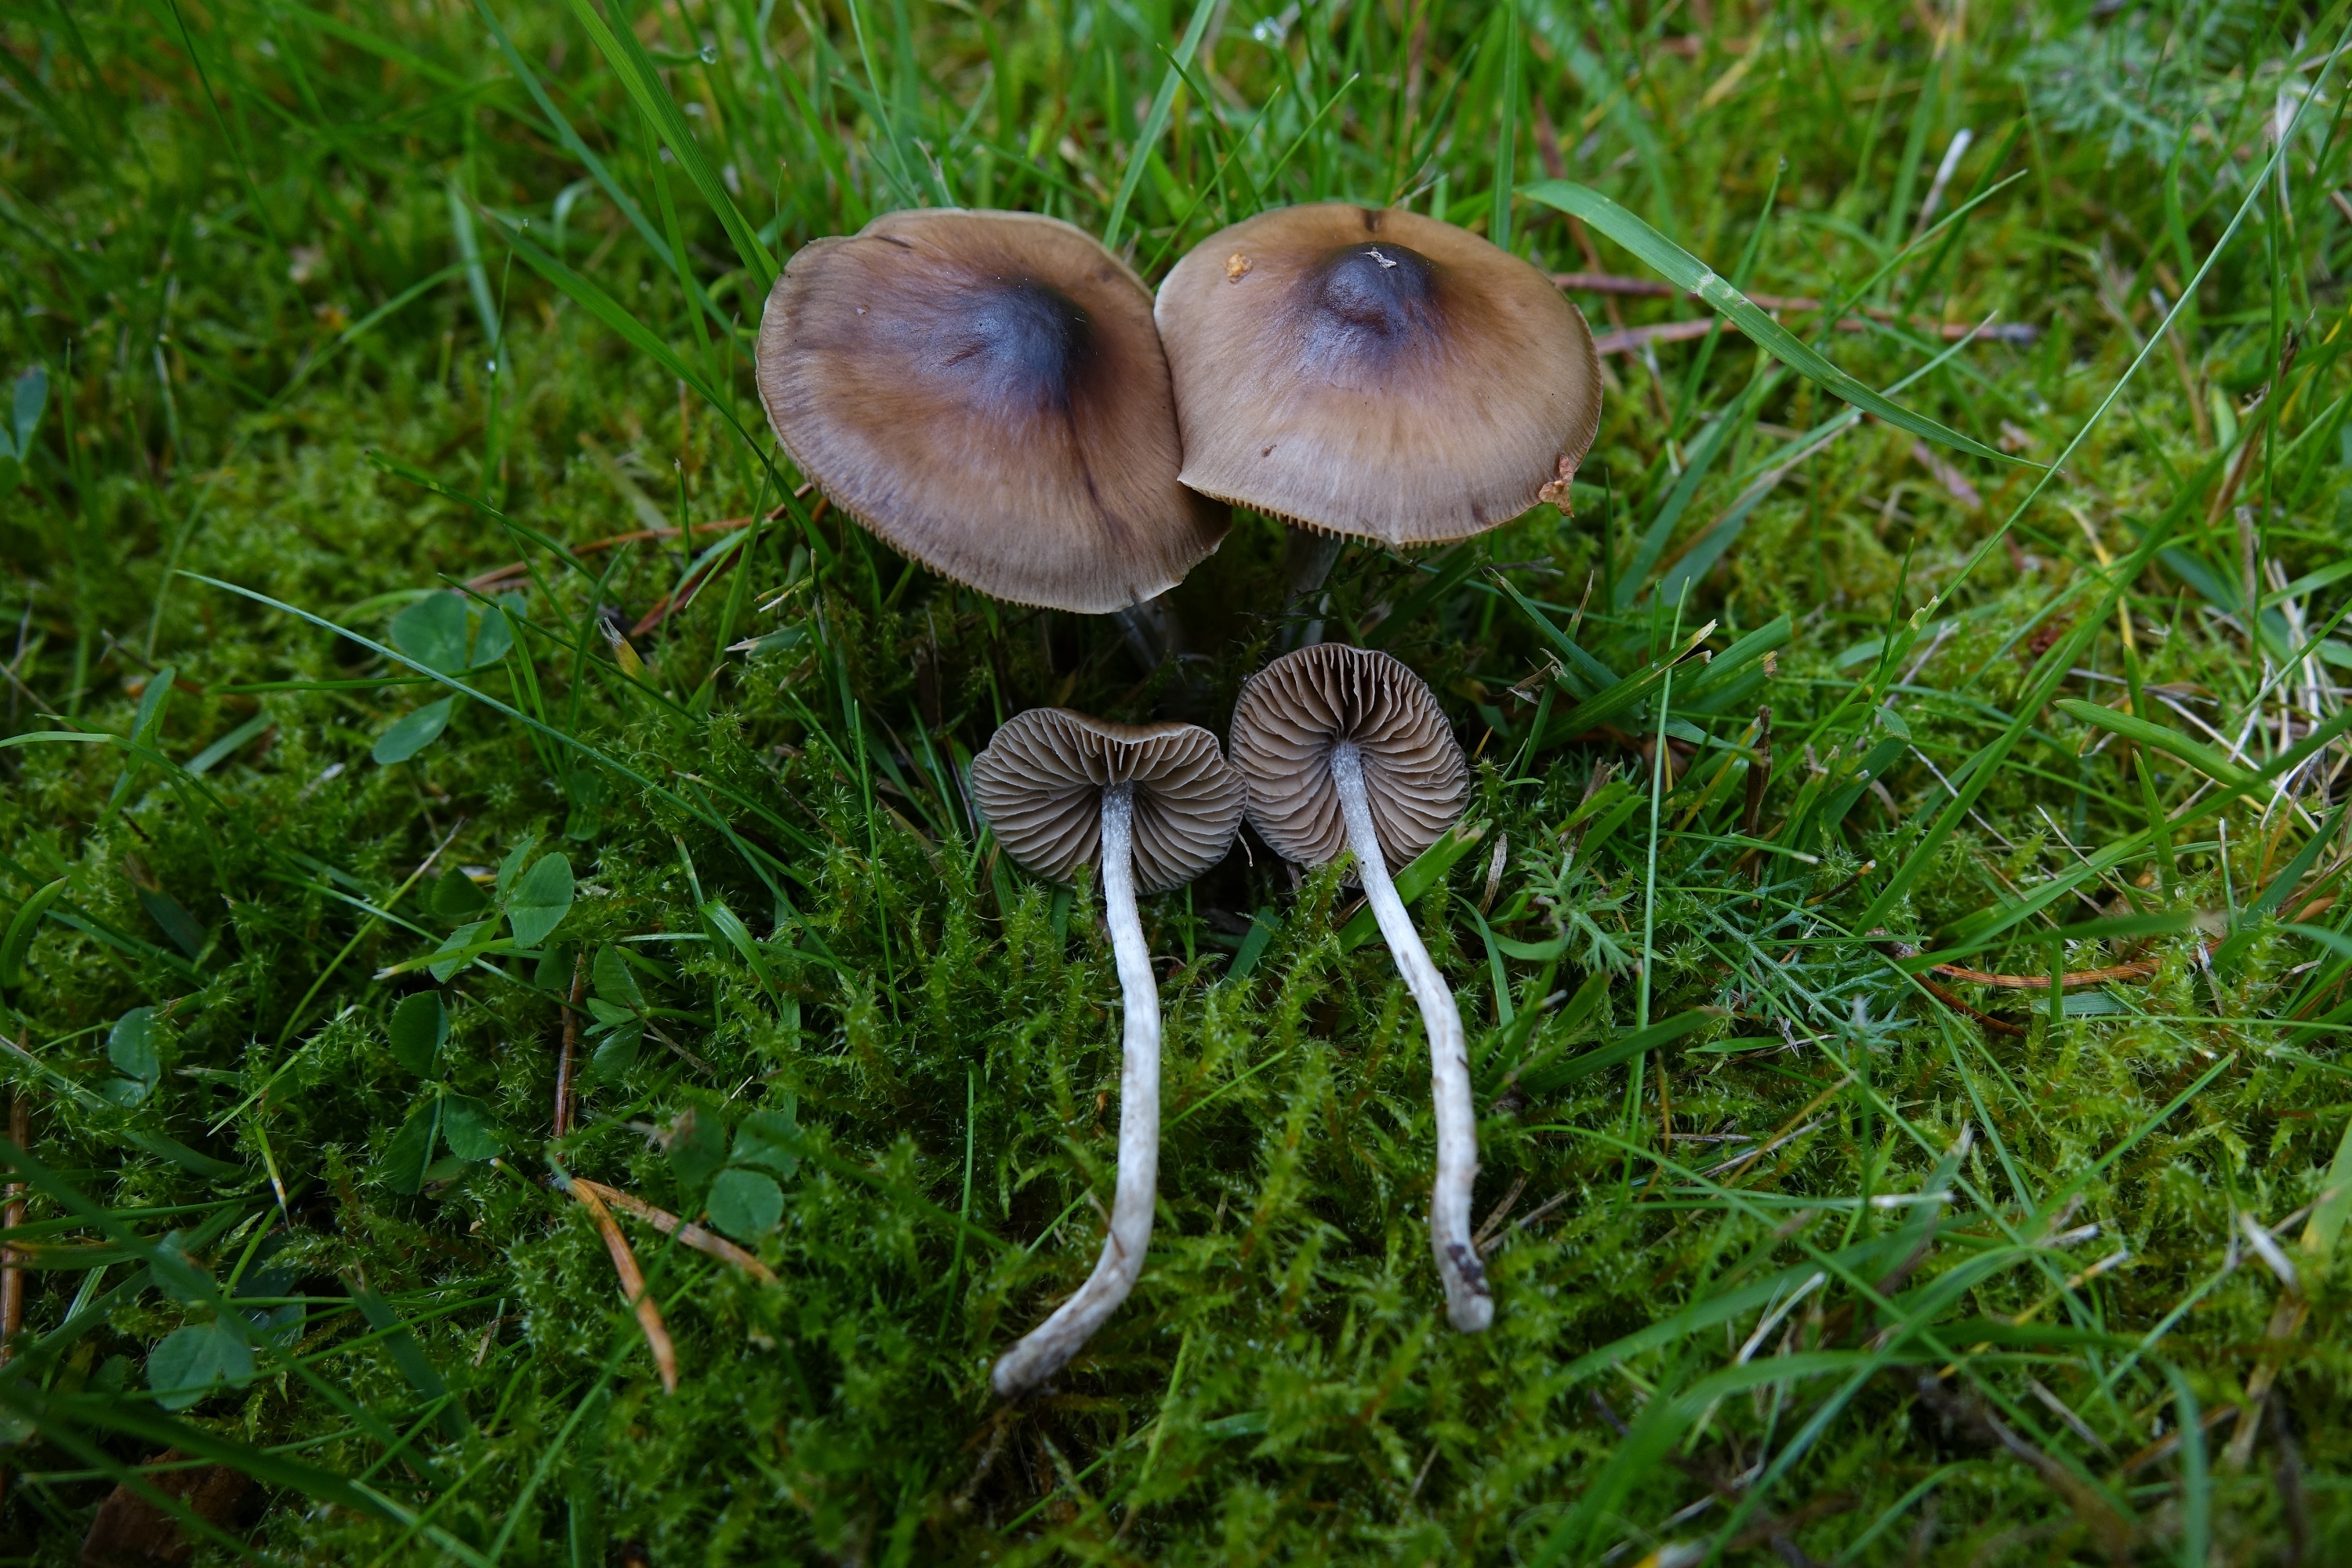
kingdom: Fungi
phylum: Basidiomycota
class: Agaricomycetes
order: Agaricales
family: Hymenogastraceae
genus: Naucoria
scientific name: Naucoria bohemica
